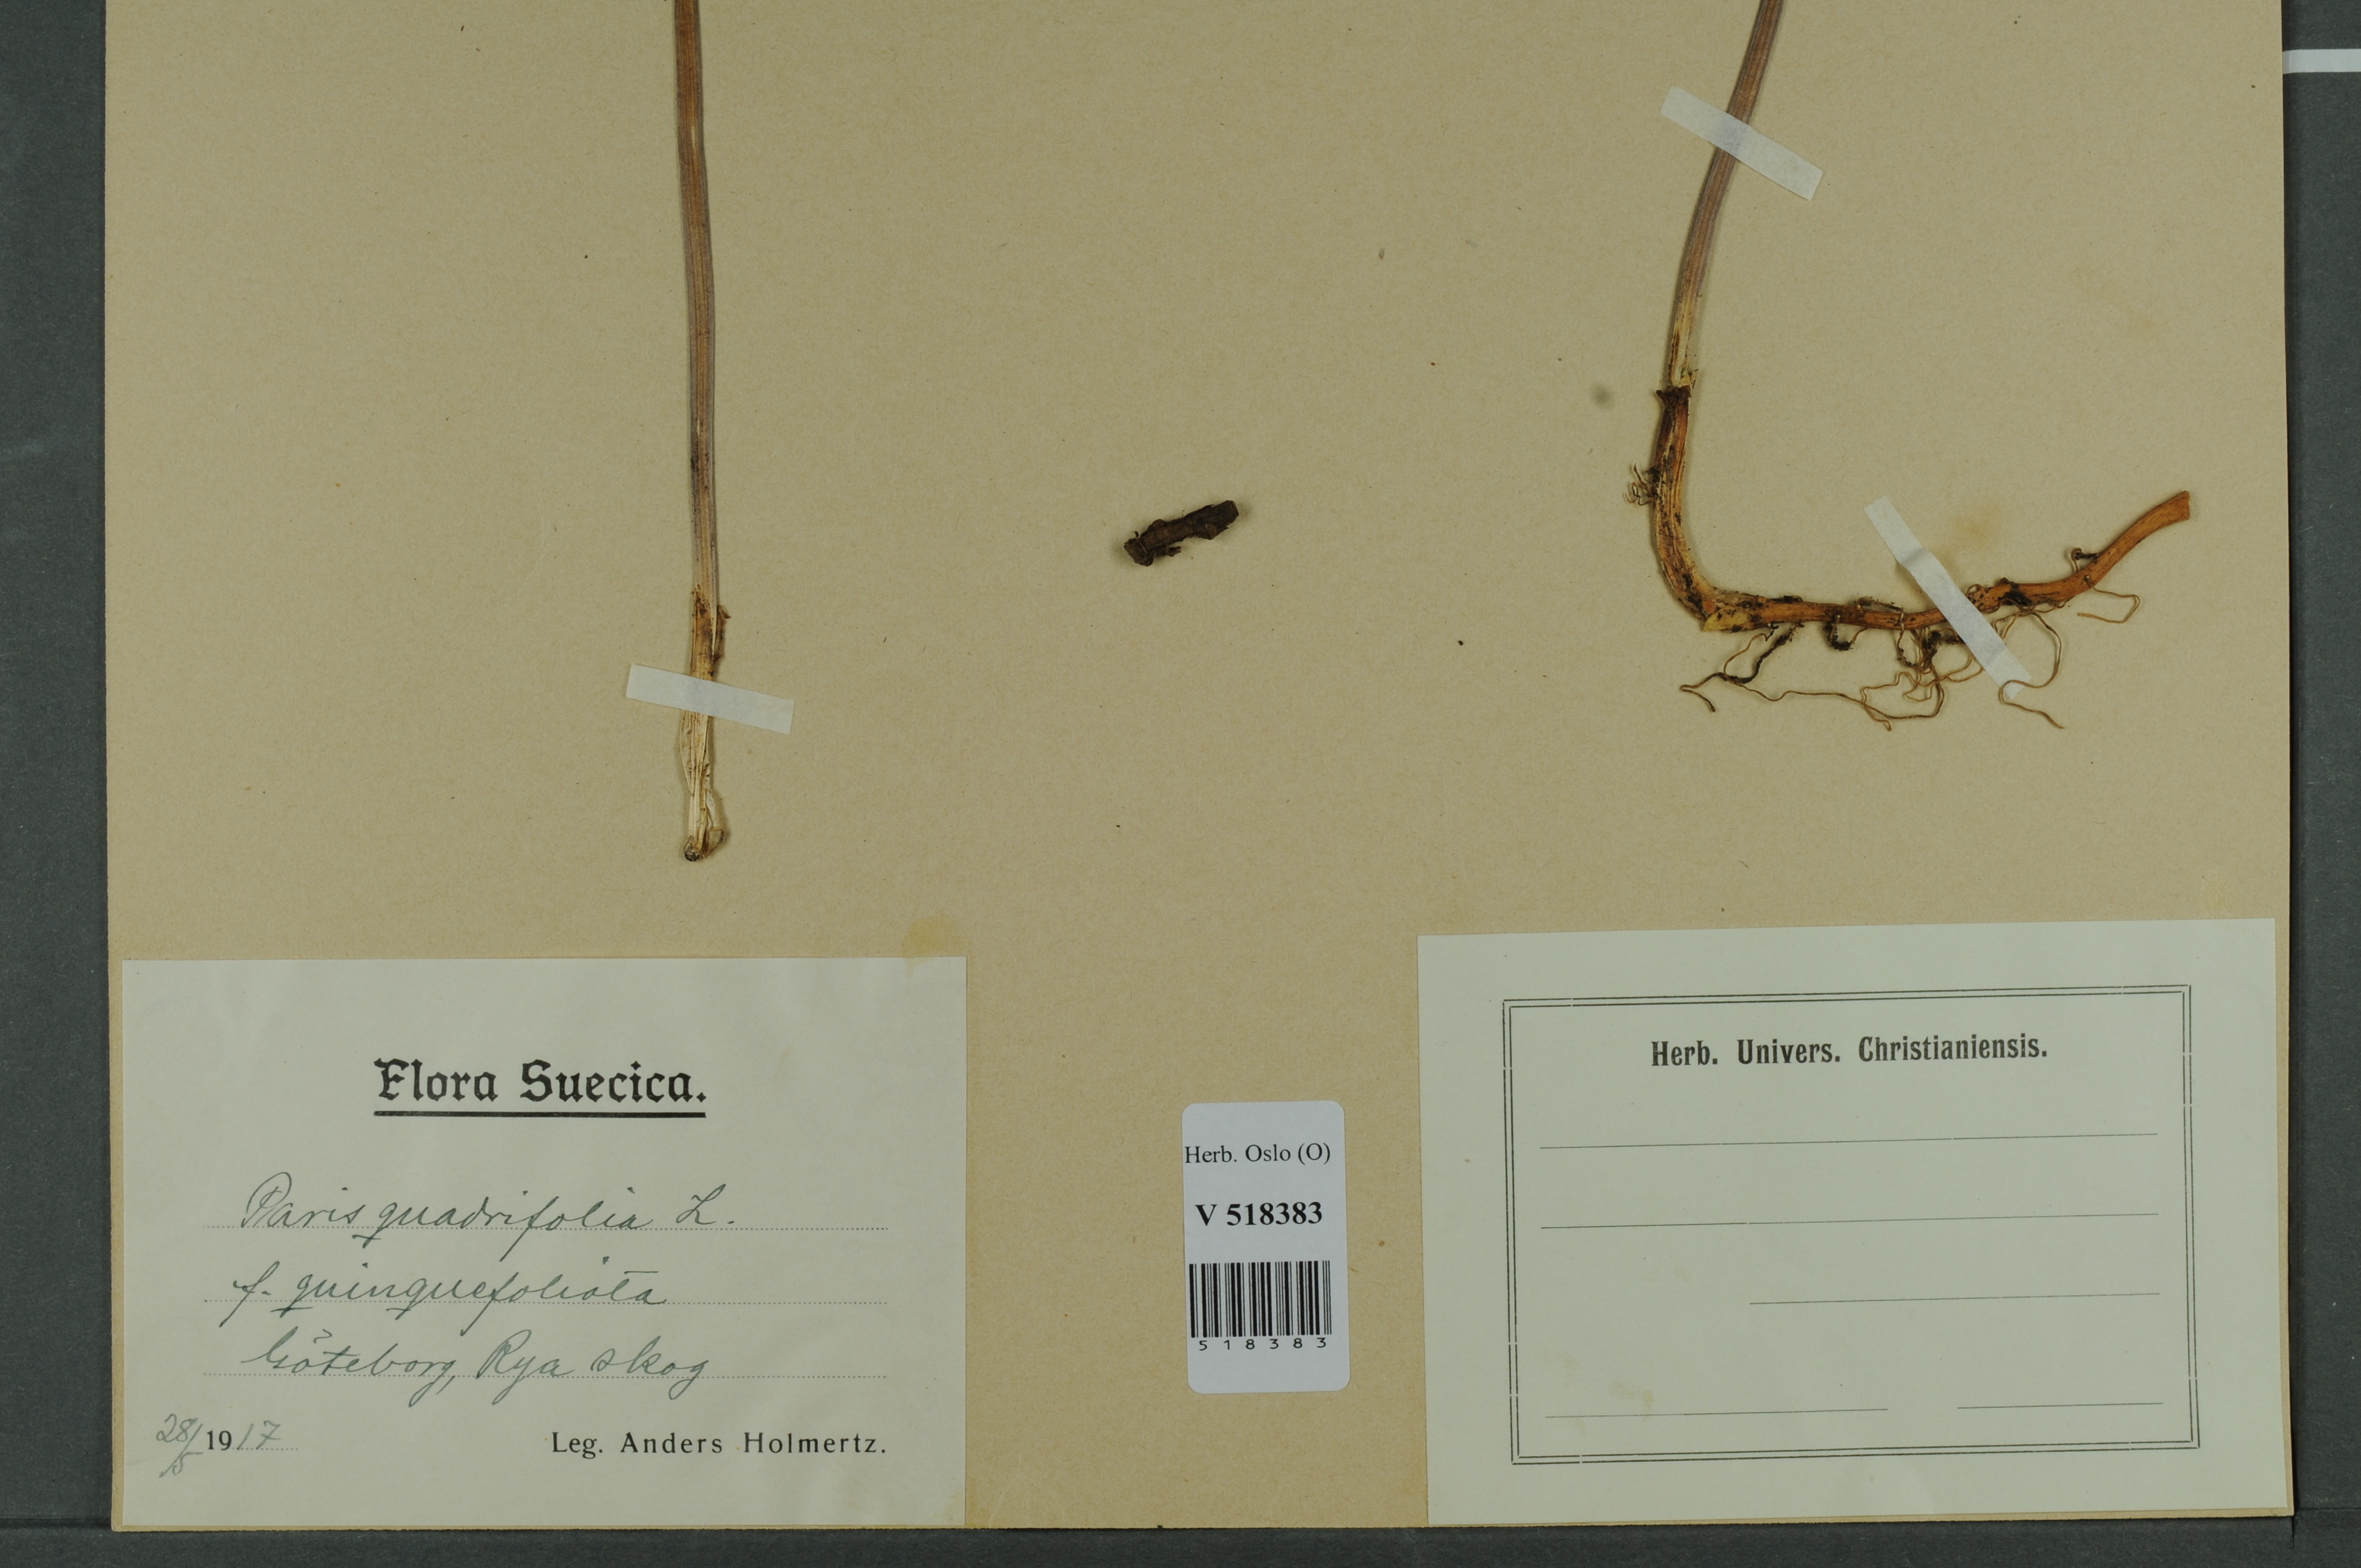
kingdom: Plantae
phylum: Tracheophyta
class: Liliopsida
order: Liliales
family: Melanthiaceae
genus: Paris
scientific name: Paris quadrifolia
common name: Herb-paris
